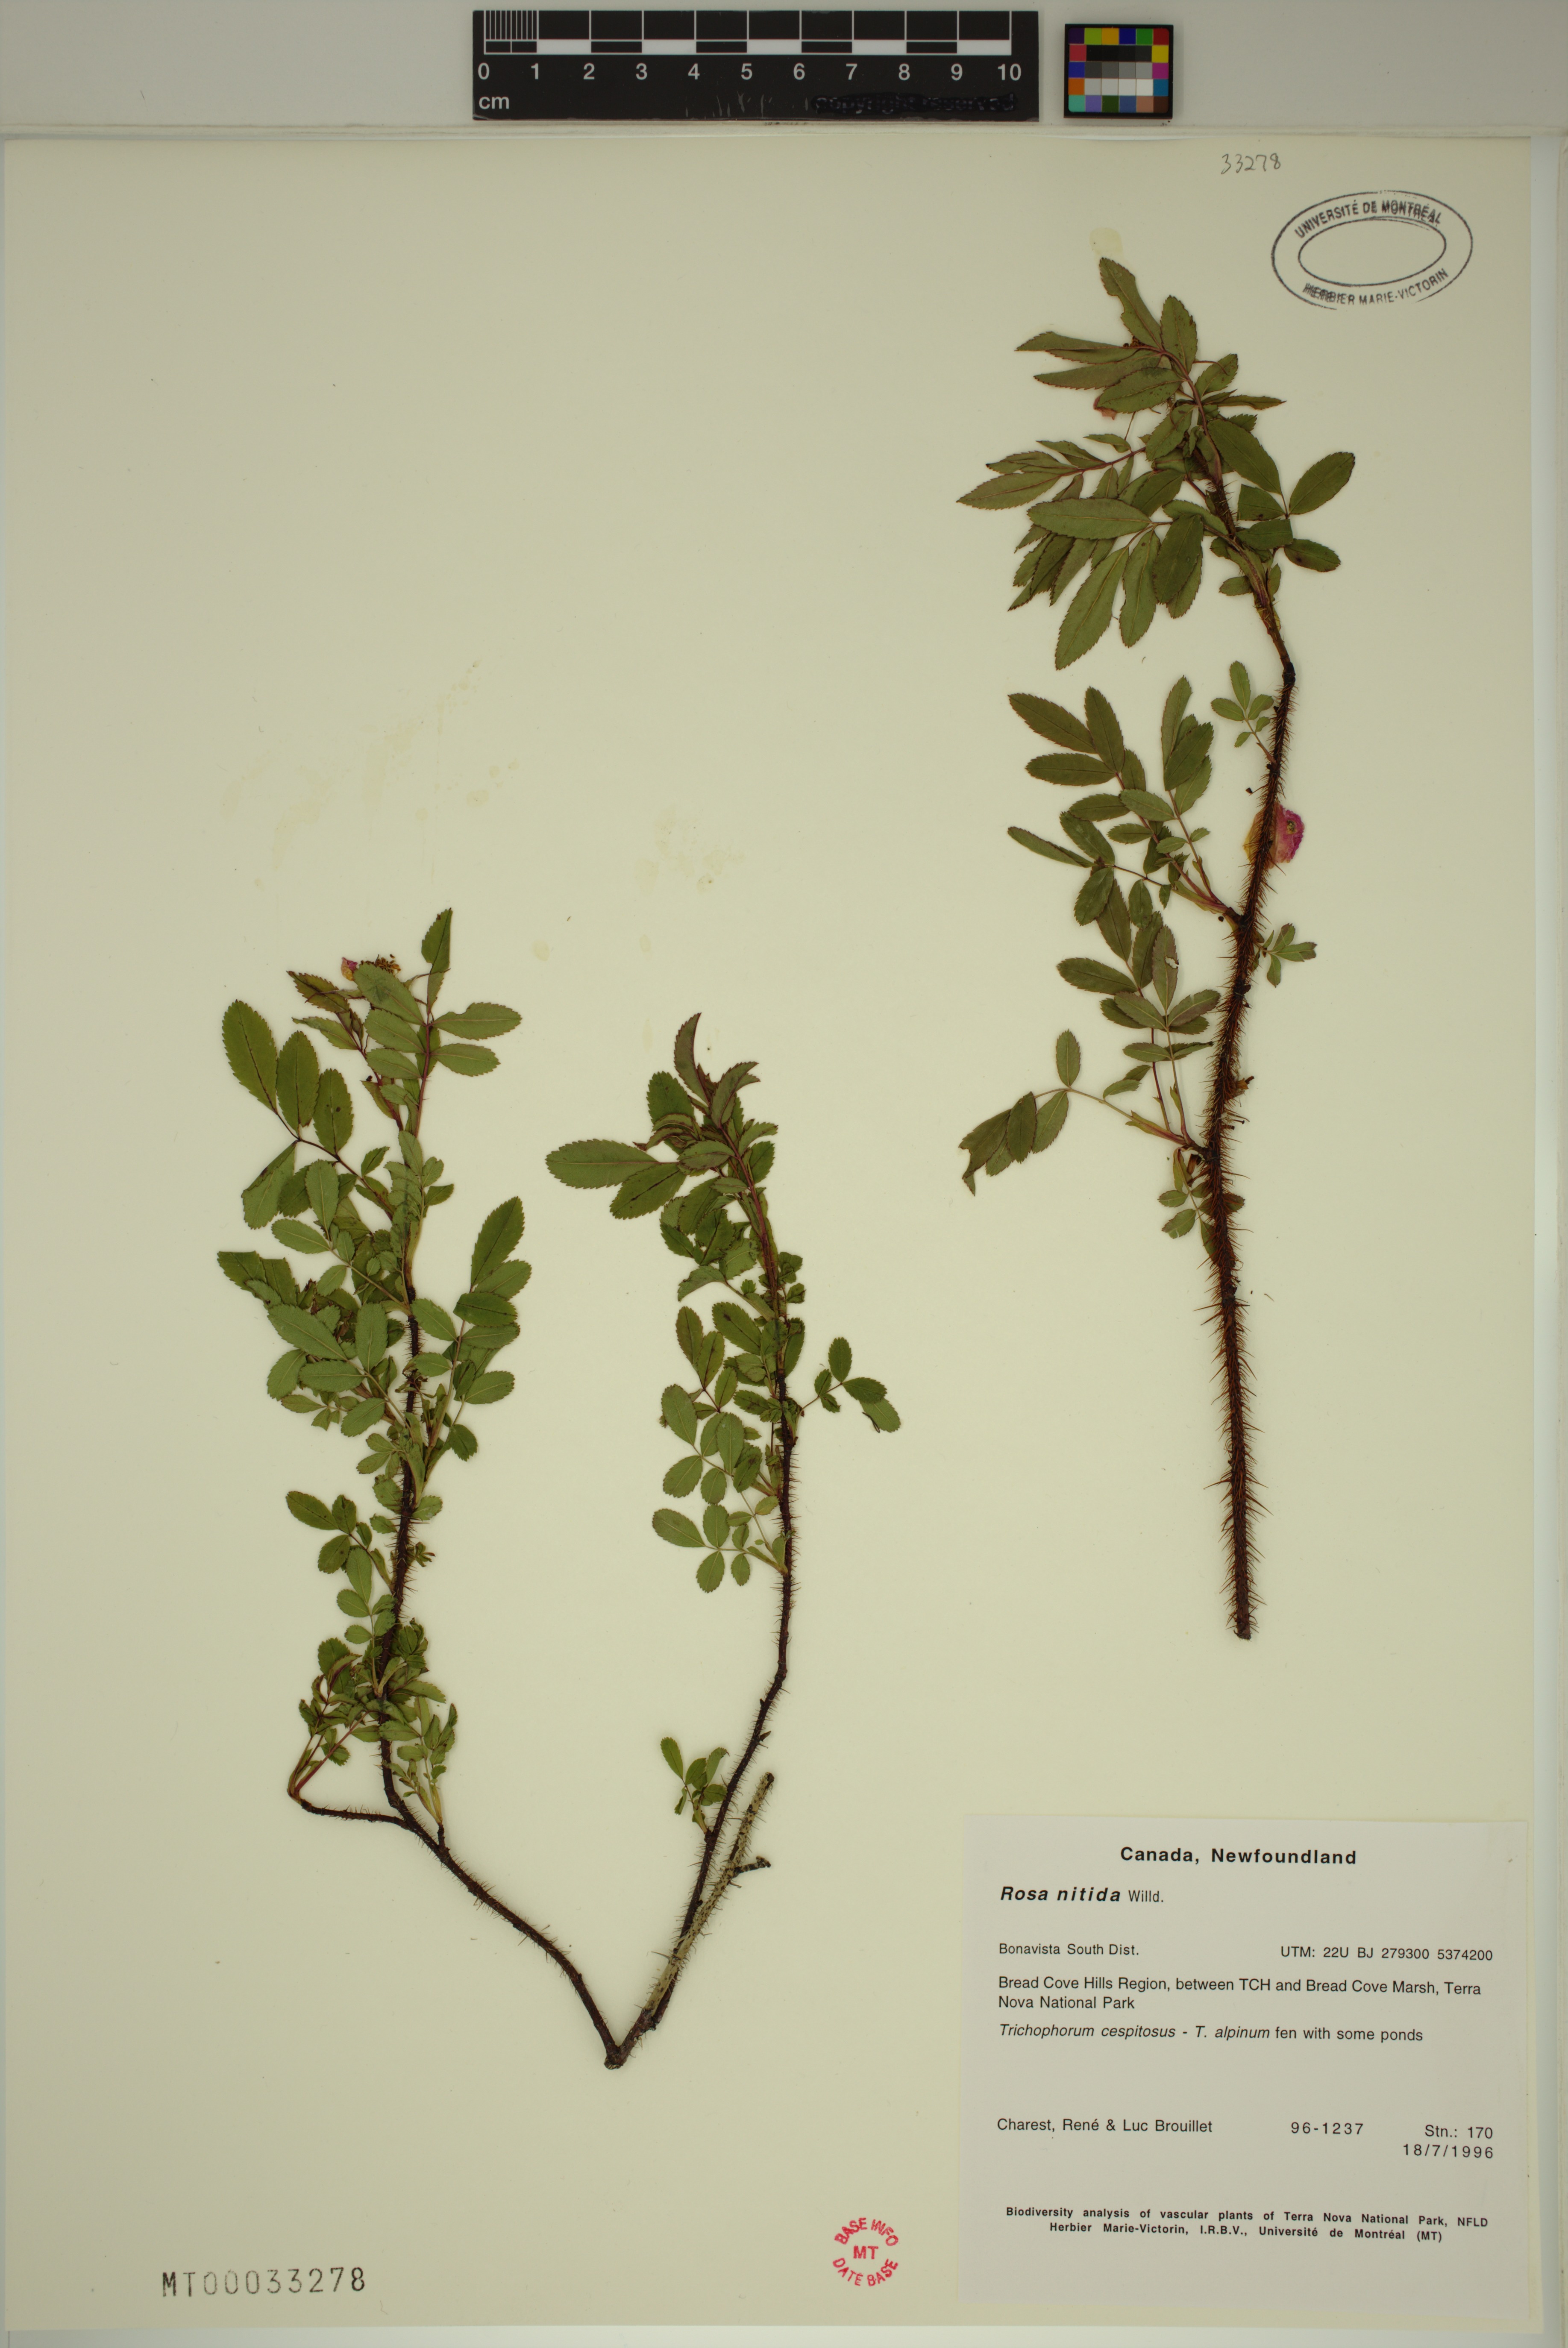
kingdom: Plantae
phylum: Tracheophyta
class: Magnoliopsida
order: Rosales
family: Rosaceae
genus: Rosa
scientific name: Rosa nitida
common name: New england rose
